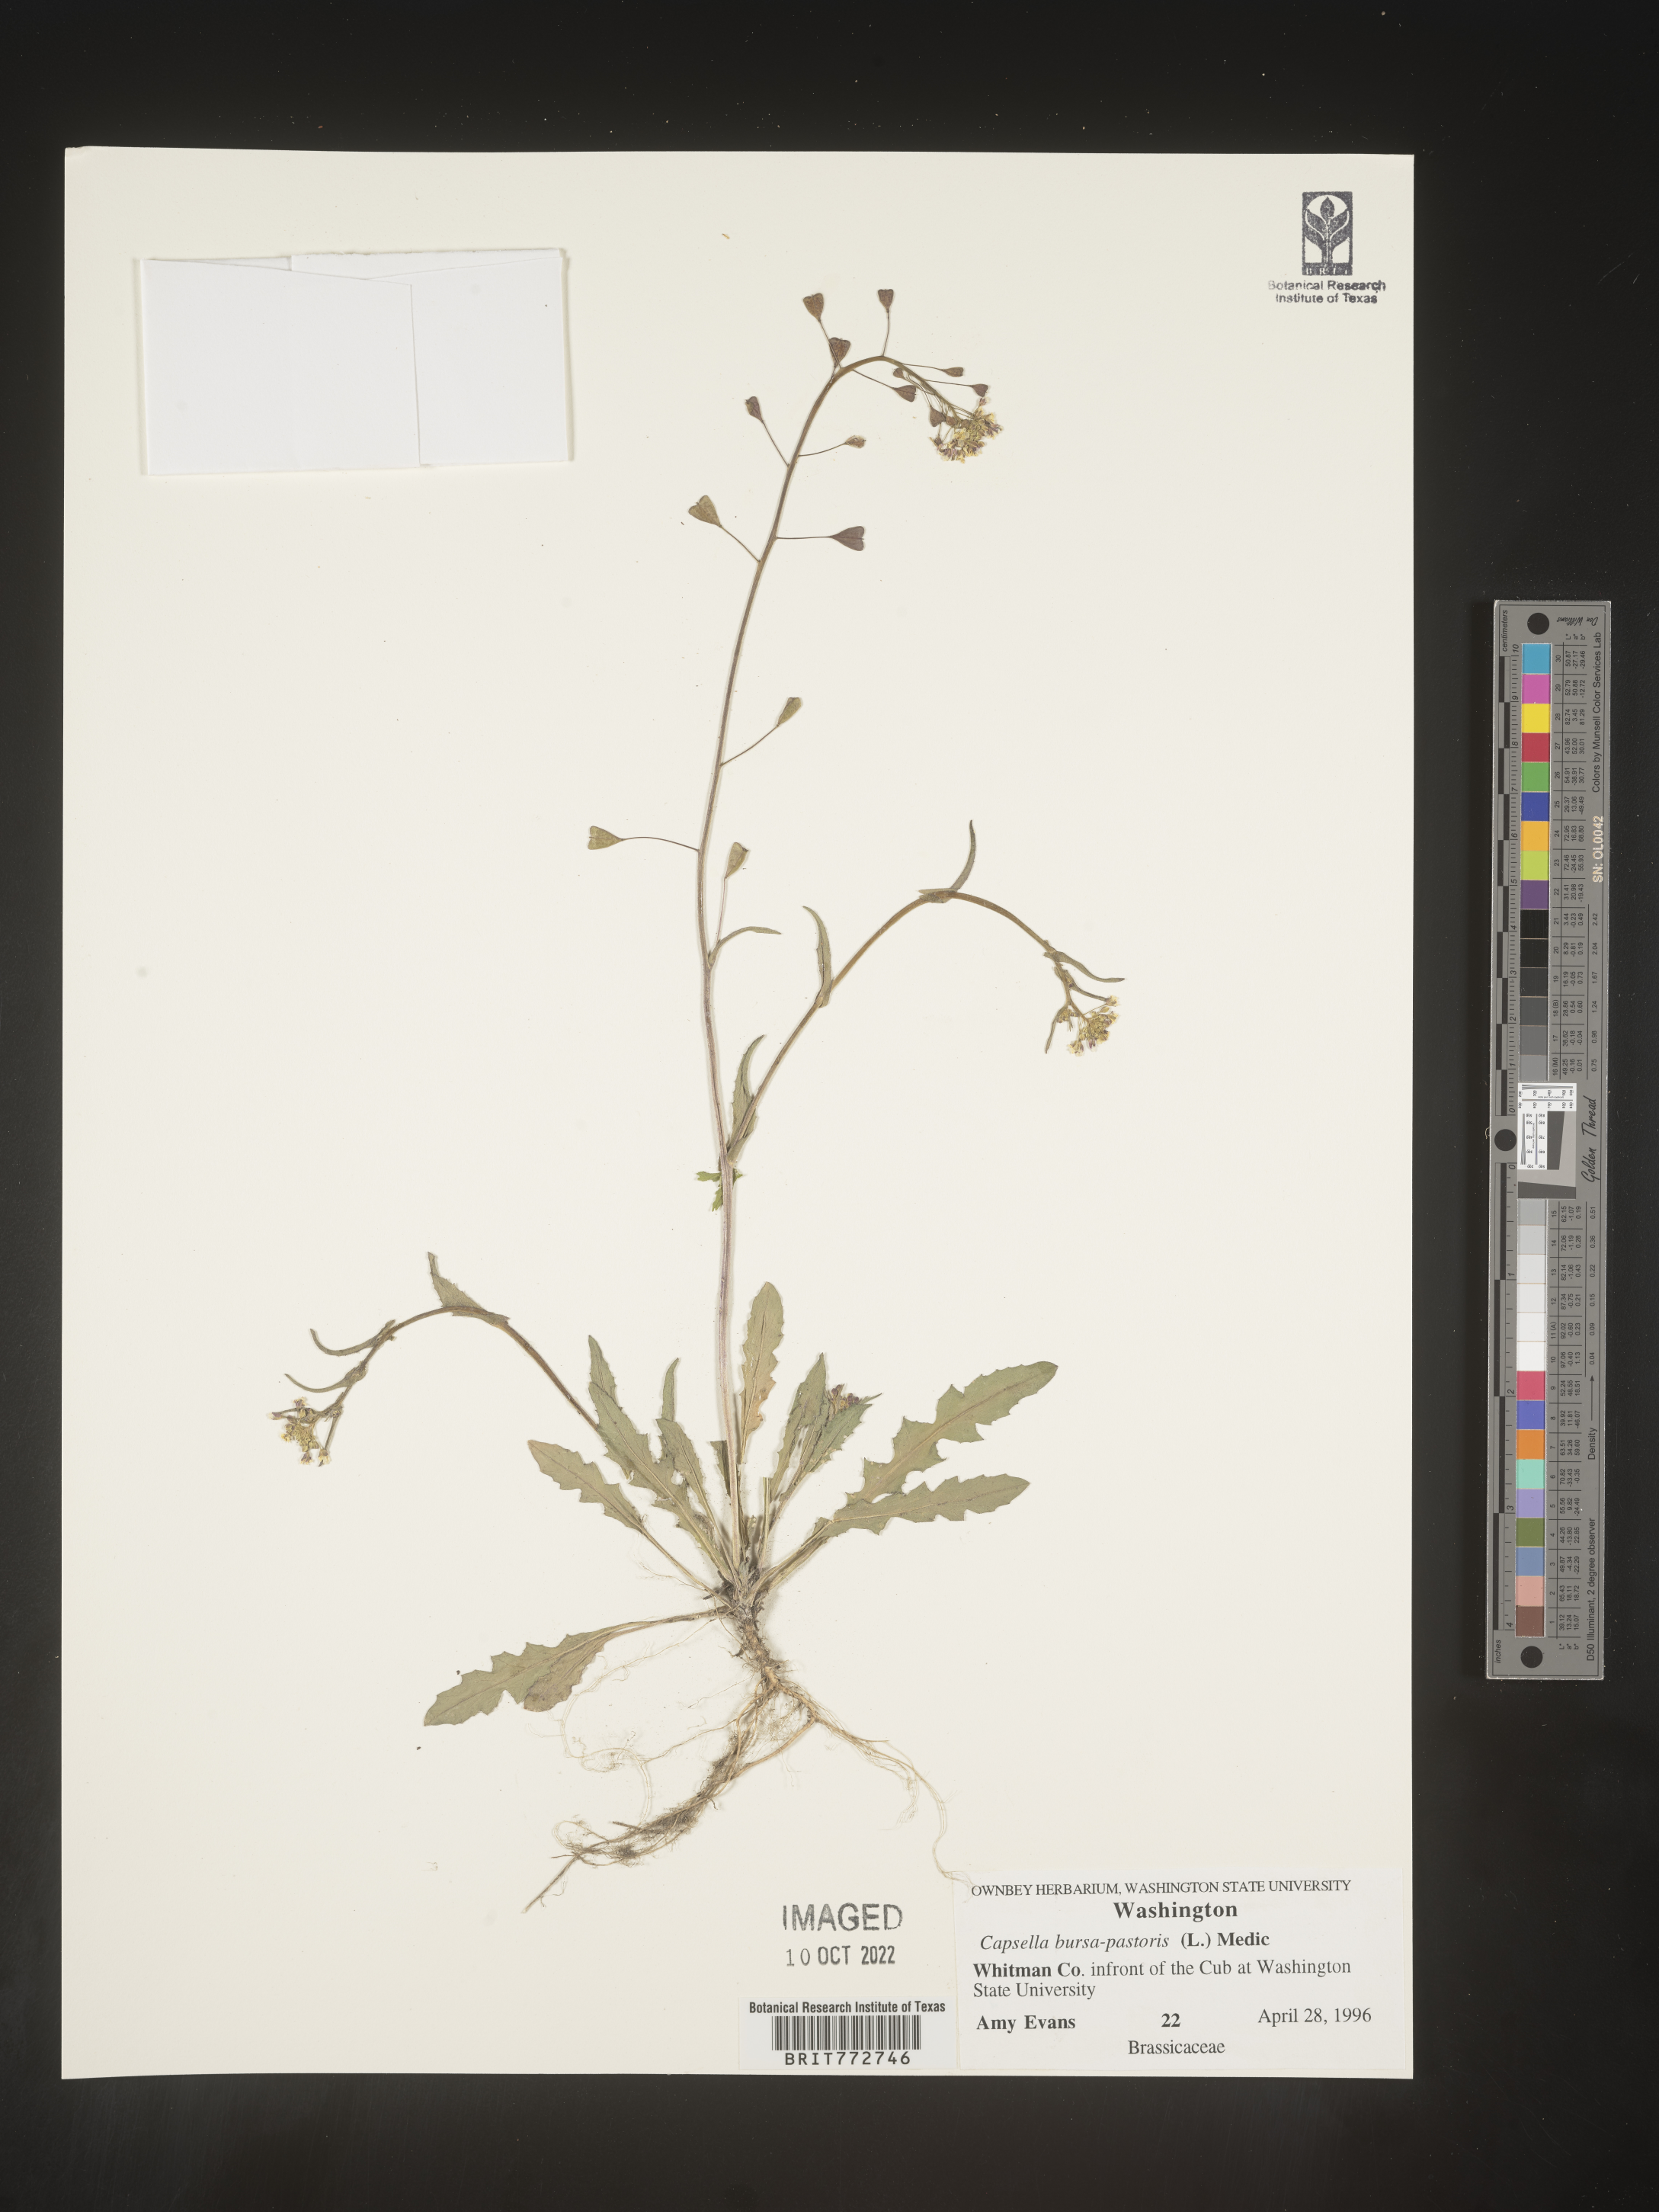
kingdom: Plantae
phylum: Tracheophyta
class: Magnoliopsida
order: Brassicales
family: Brassicaceae
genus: Capsella
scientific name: Capsella bursa-pastoris
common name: Shepherd's purse
